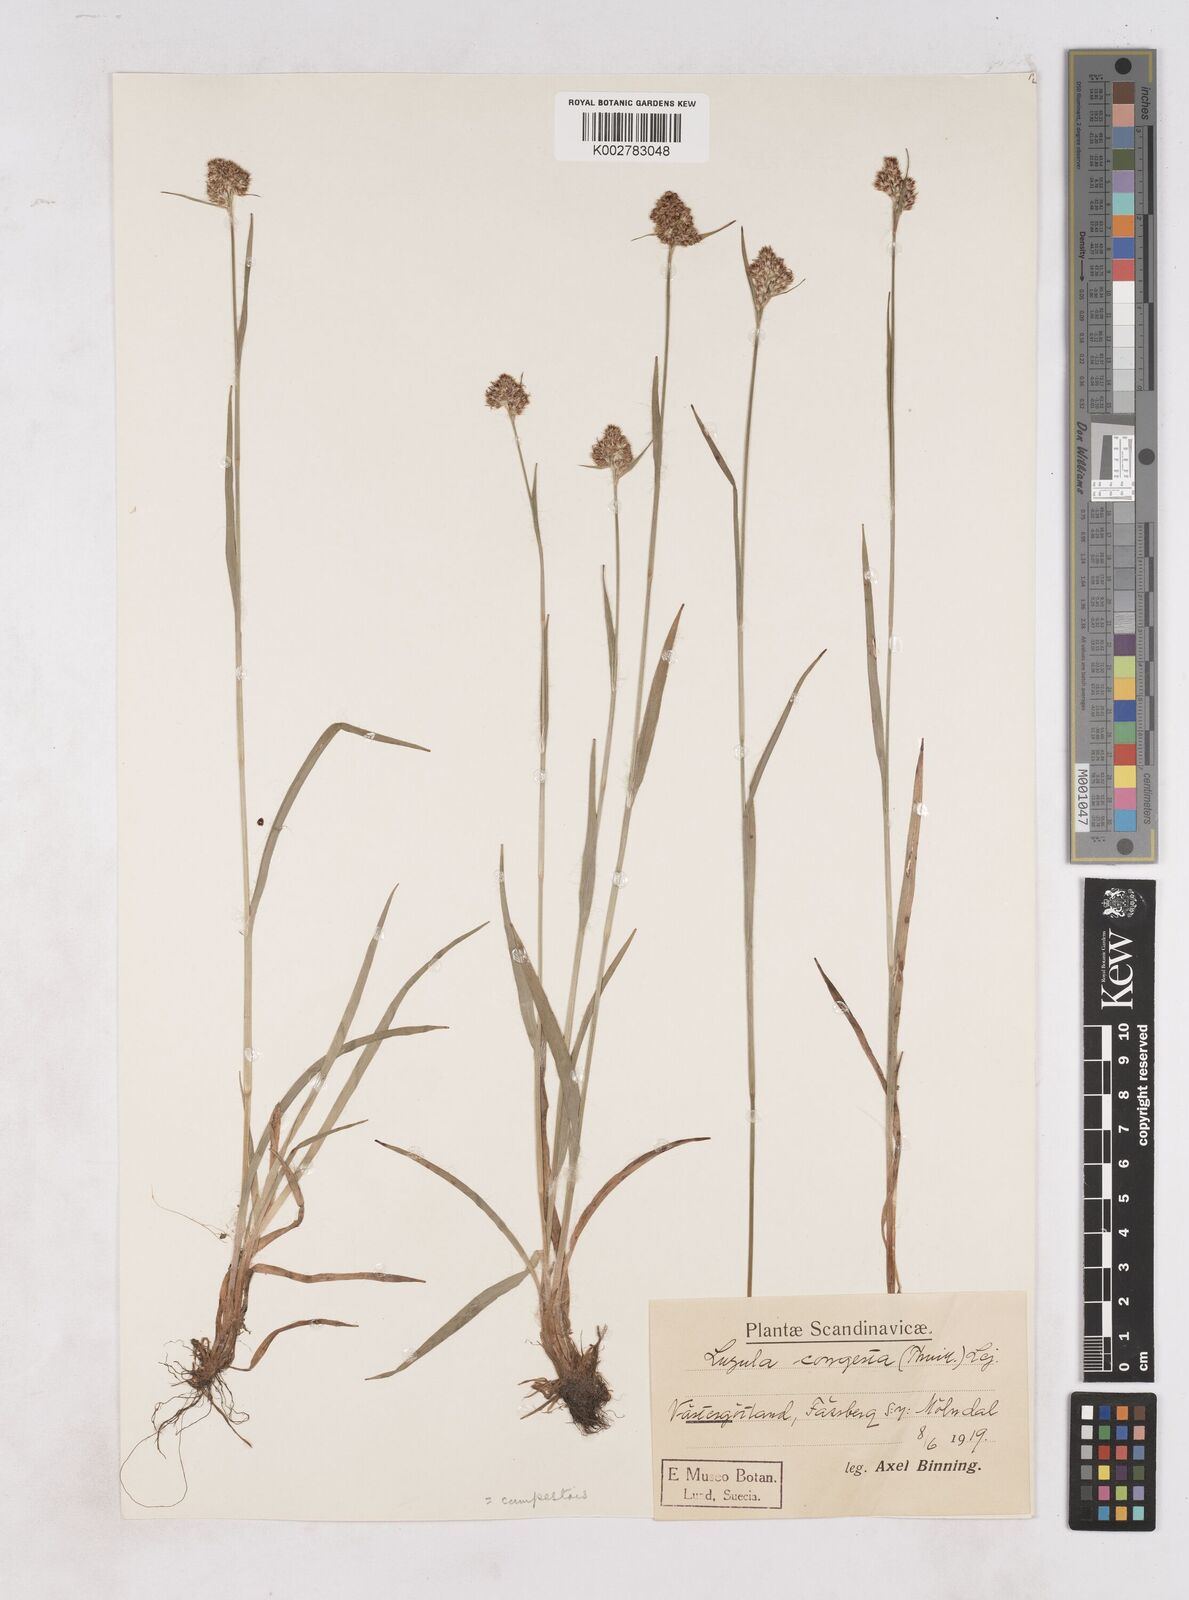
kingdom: Plantae
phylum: Tracheophyta
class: Liliopsida
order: Poales
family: Juncaceae
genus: Luzula
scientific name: Luzula campestris
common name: Field wood-rush
